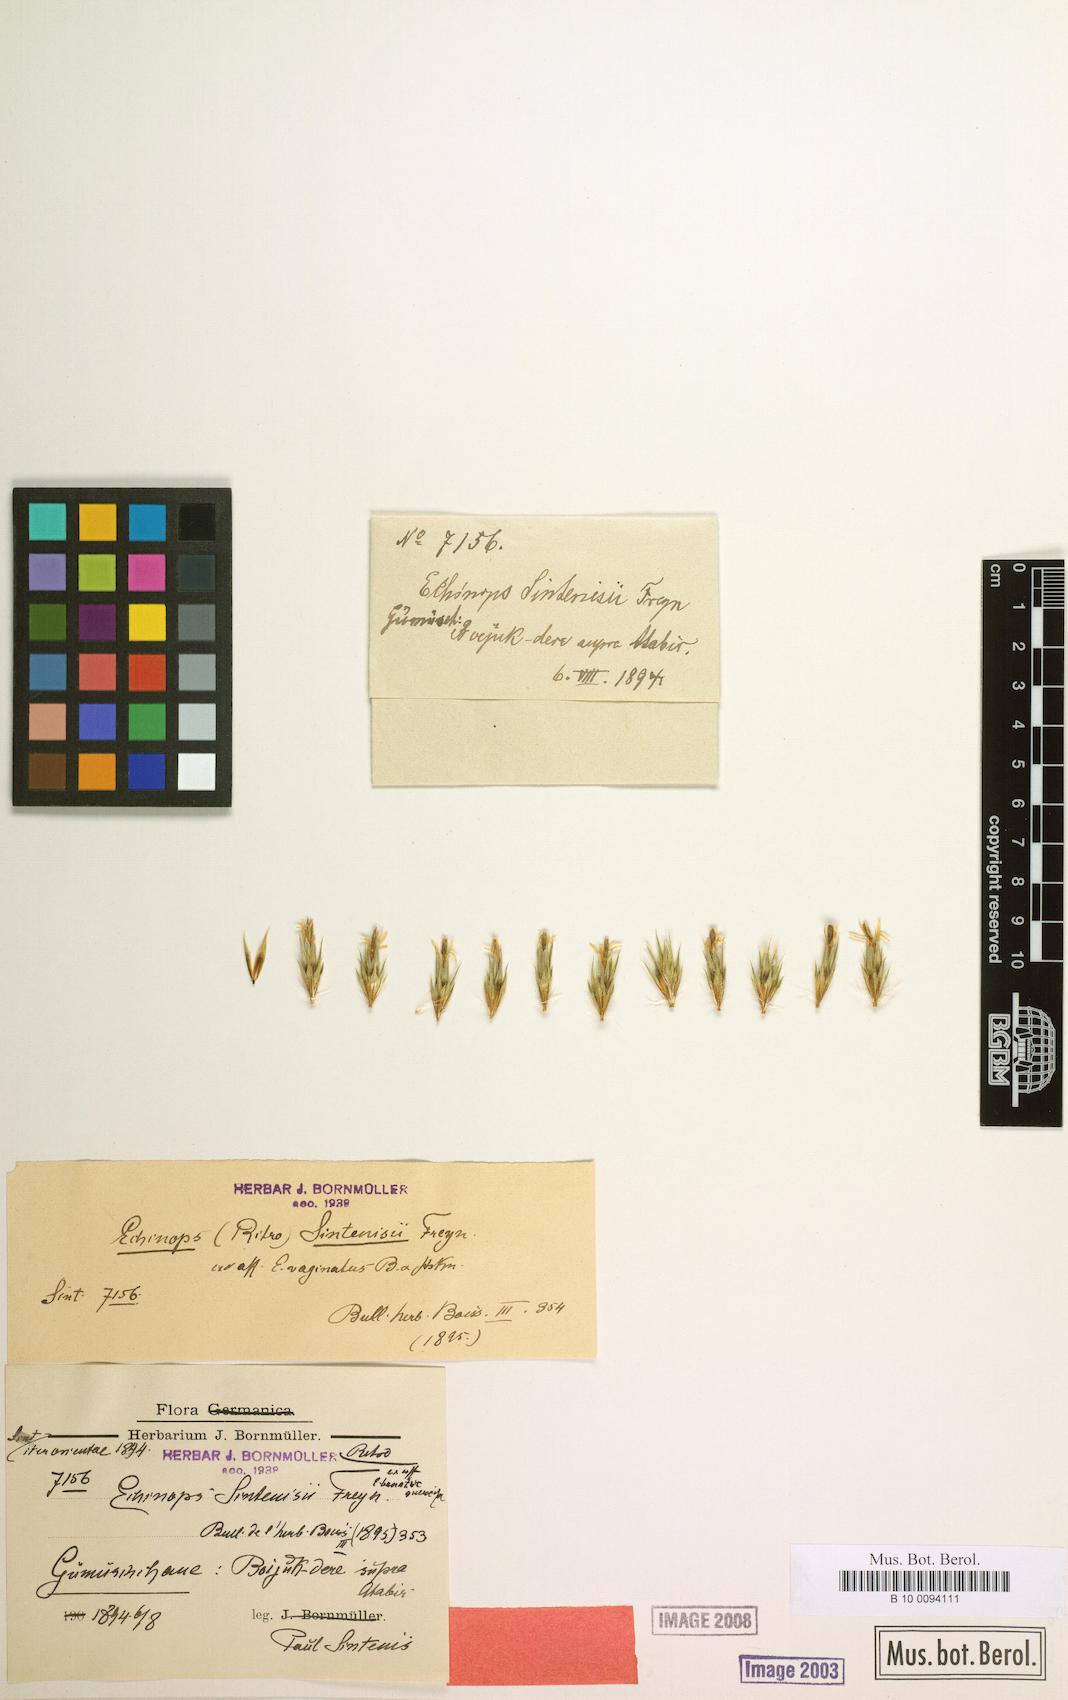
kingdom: Plantae
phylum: Tracheophyta
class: Magnoliopsida
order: Asterales
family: Asteraceae
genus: Echinops
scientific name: Echinops sintenisii
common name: Sintensis' globe thistle
